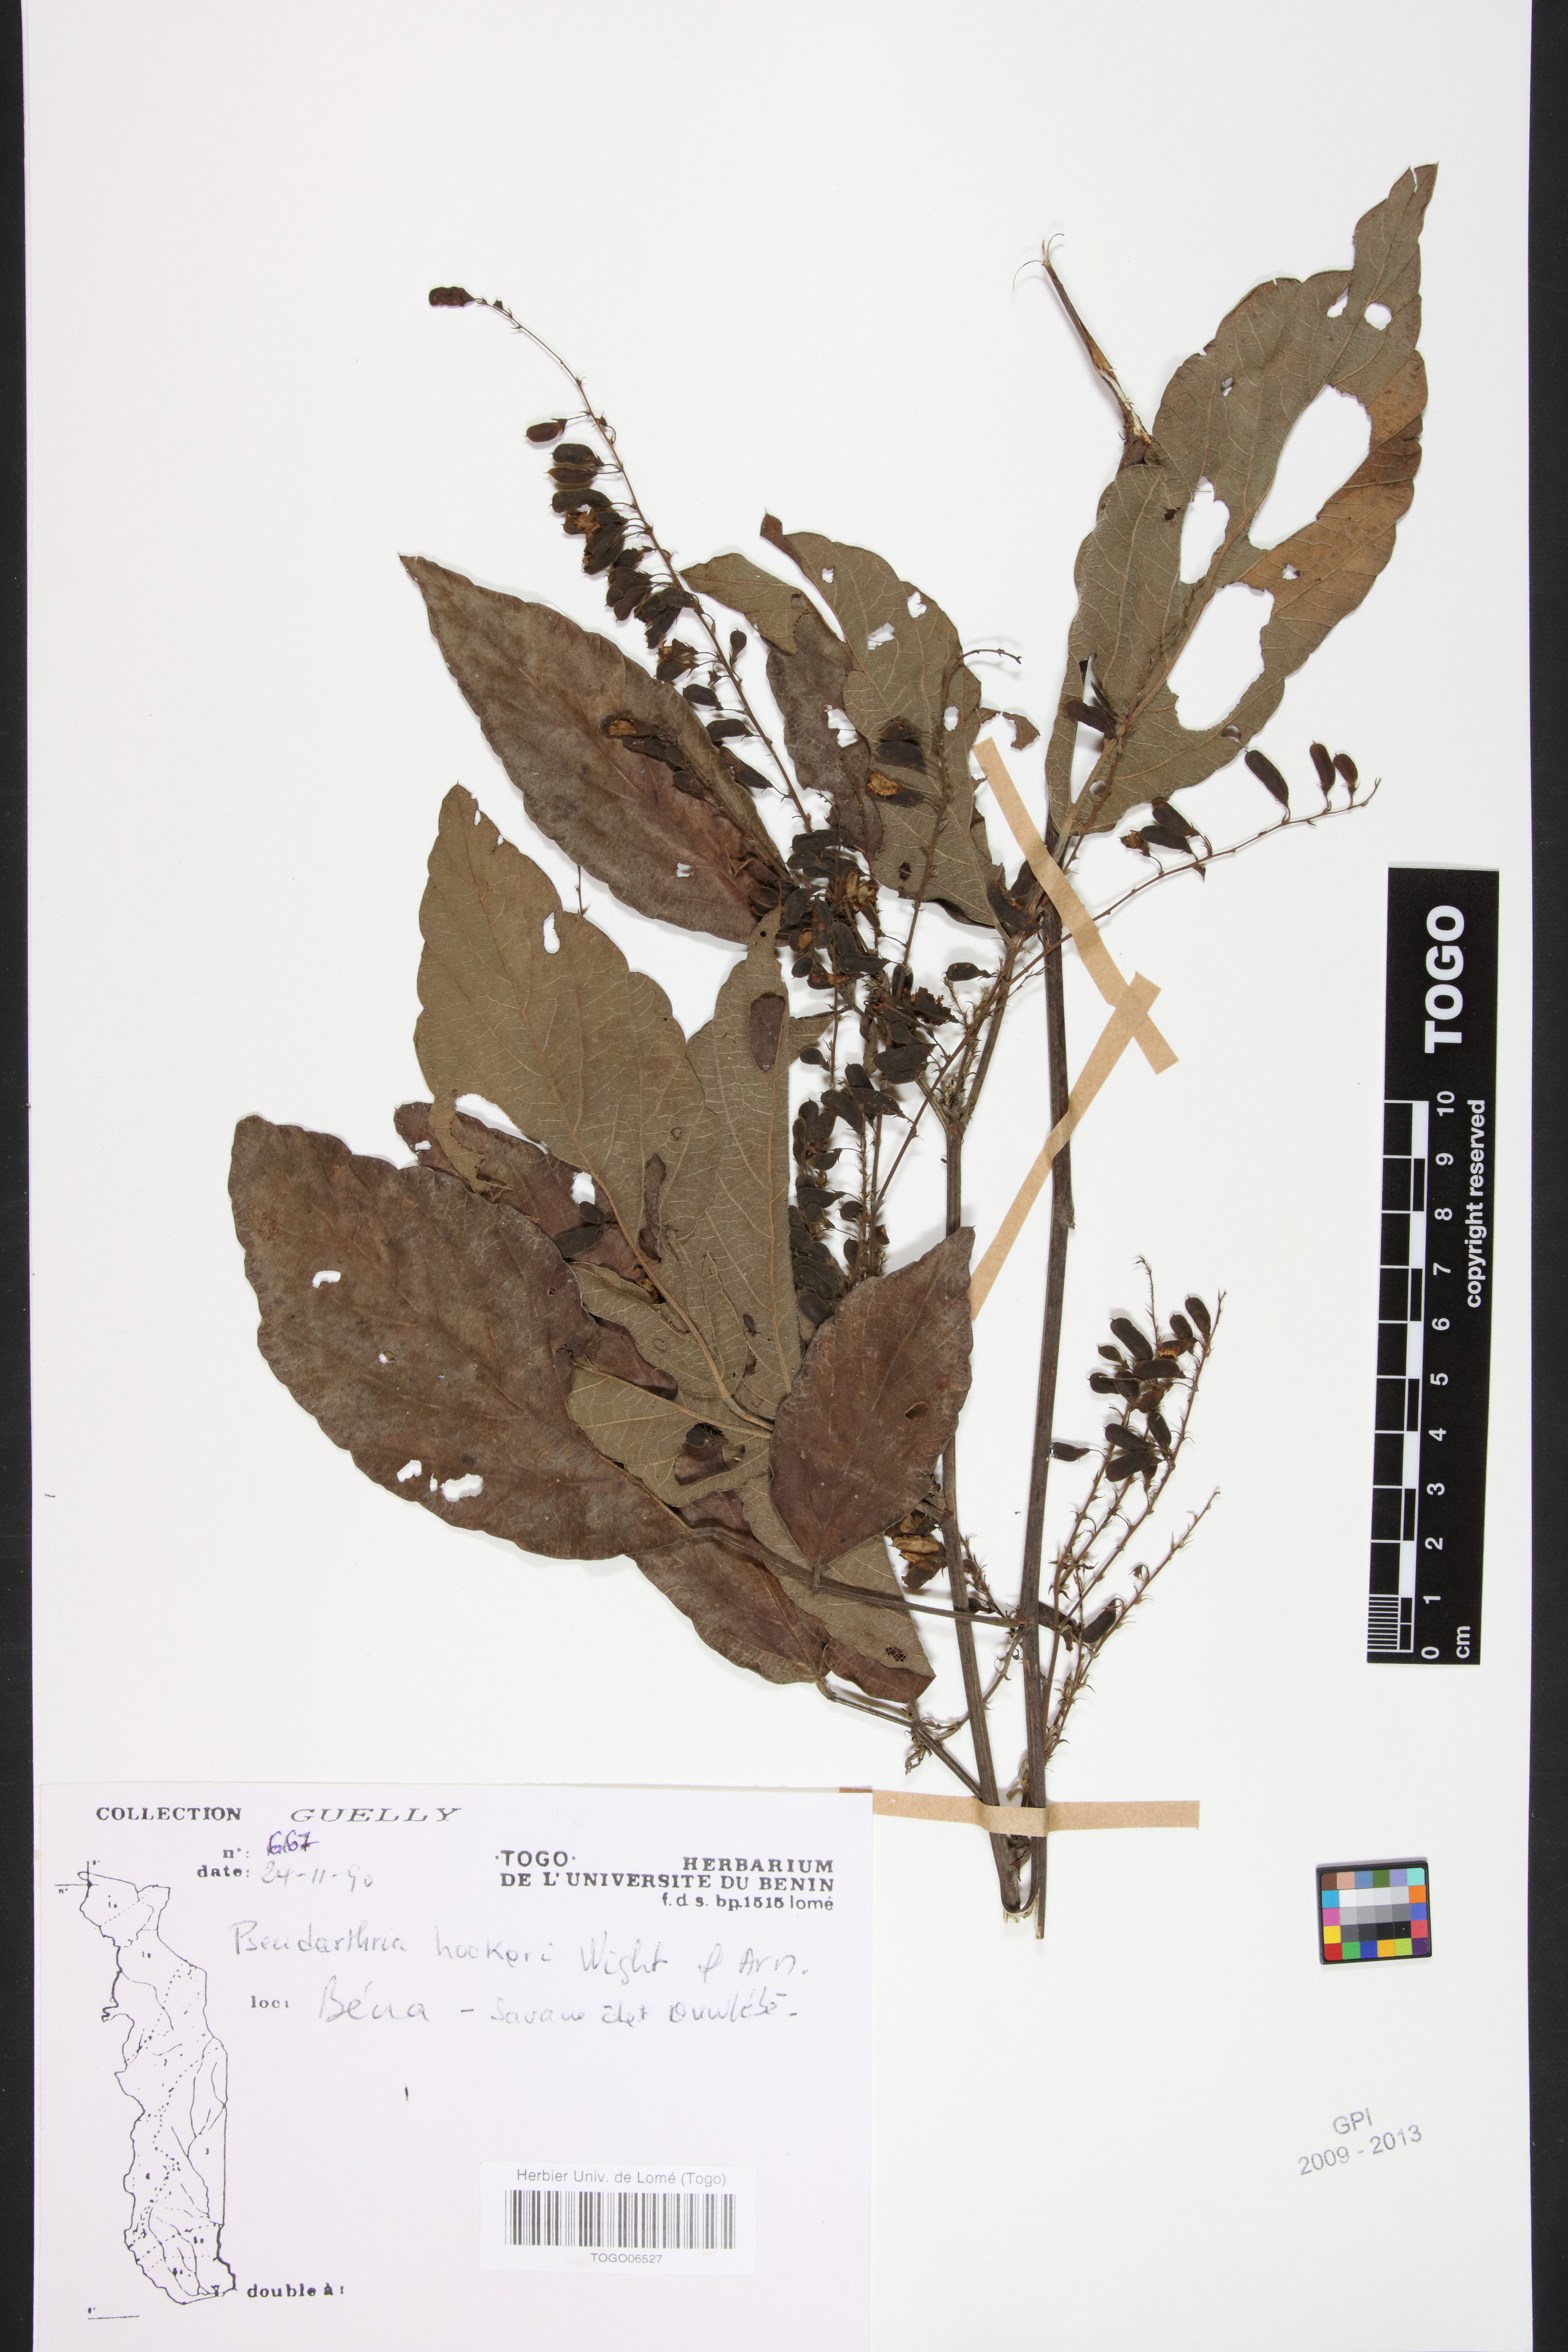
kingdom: Plantae
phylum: Tracheophyta
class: Magnoliopsida
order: Fabales
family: Fabaceae
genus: Pseudarthria
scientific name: Pseudarthria hookeri
